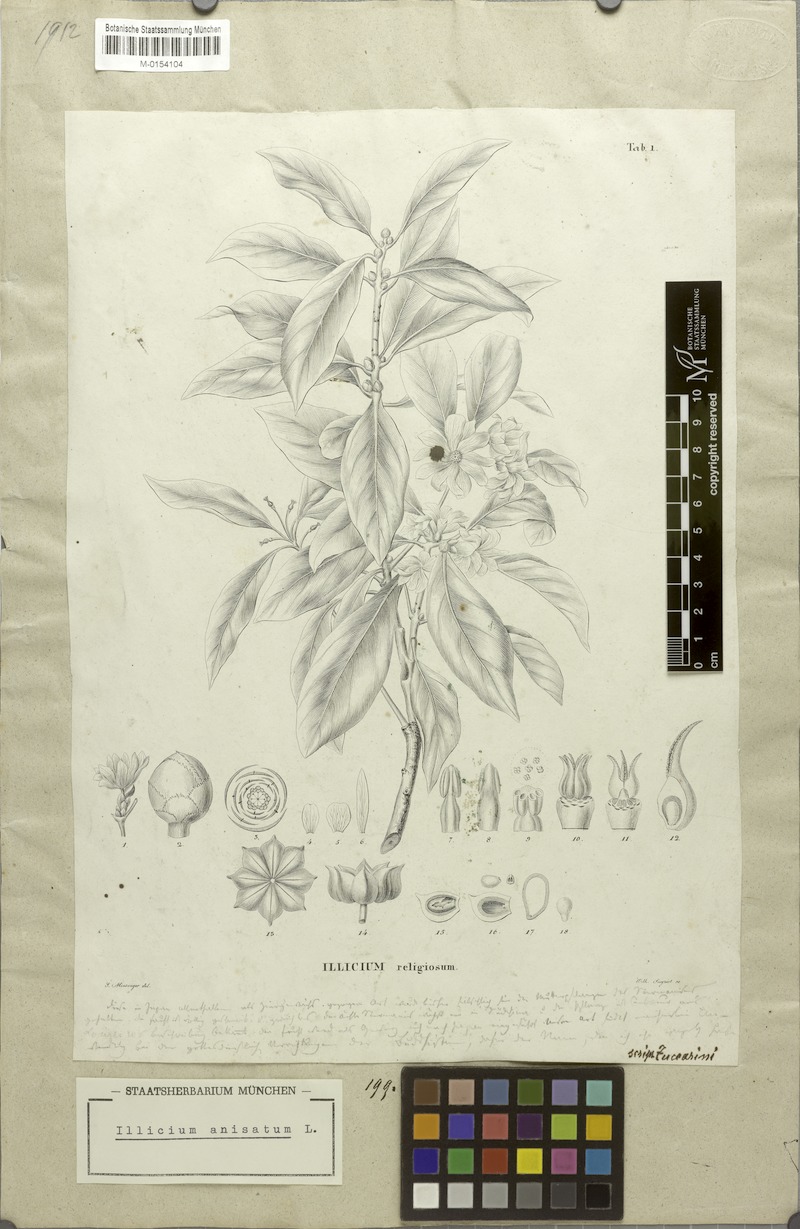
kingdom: Plantae
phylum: Tracheophyta
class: Magnoliopsida
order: Austrobaileyales
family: Schisandraceae
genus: Illicium
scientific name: Illicium anisatum
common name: Sacred anisetree
